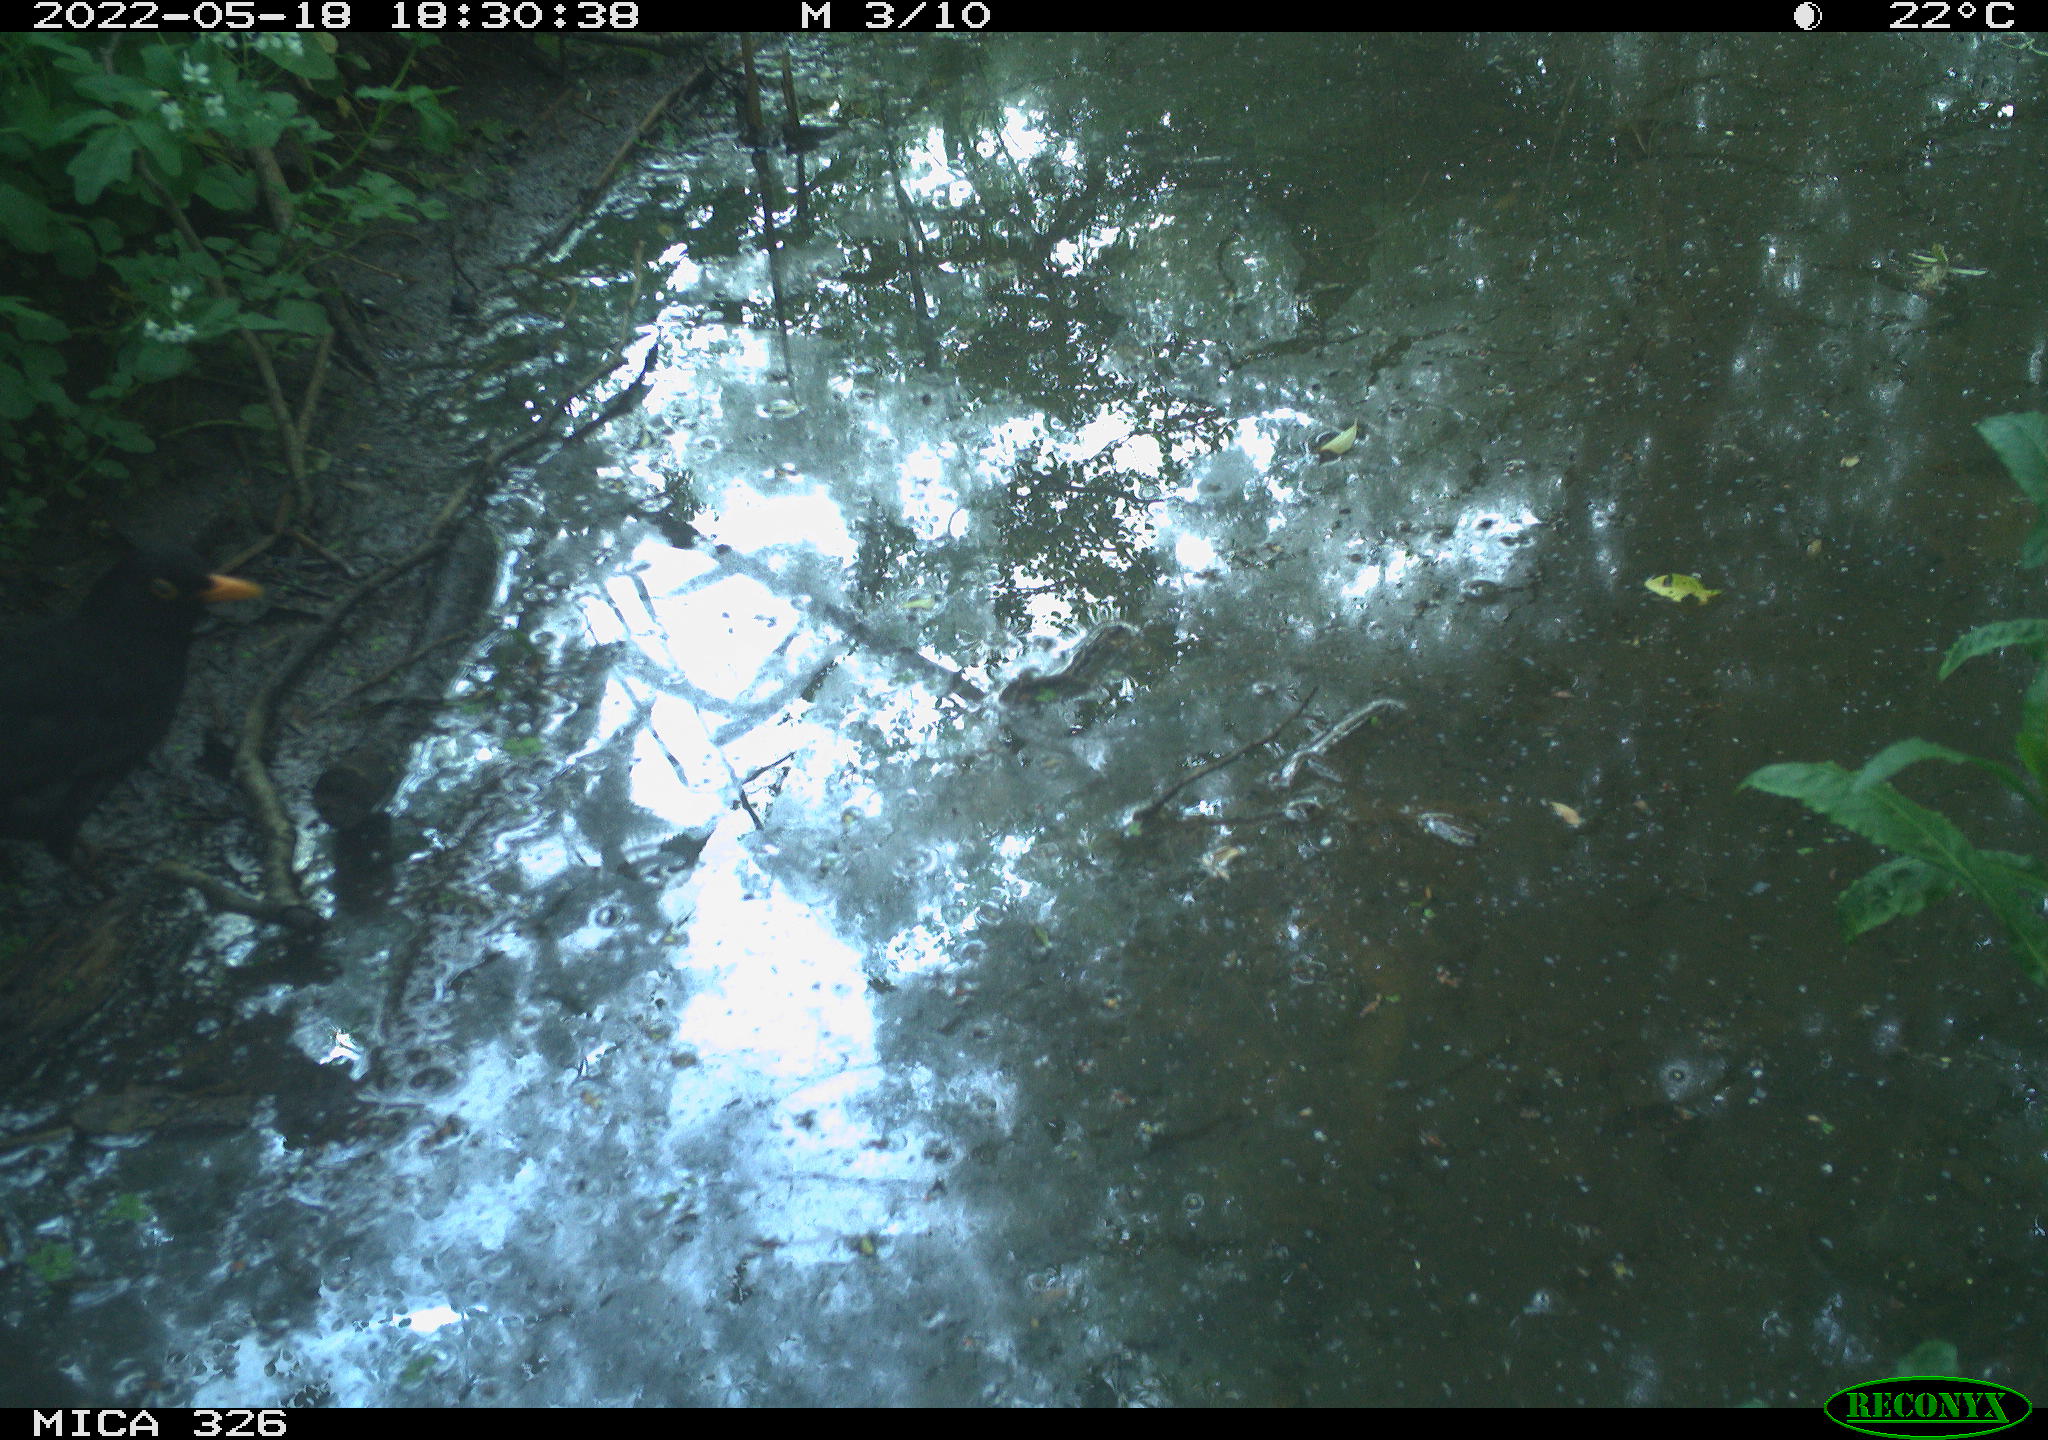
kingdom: Animalia
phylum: Chordata
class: Aves
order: Passeriformes
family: Turdidae
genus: Turdus
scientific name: Turdus merula
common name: Common blackbird
